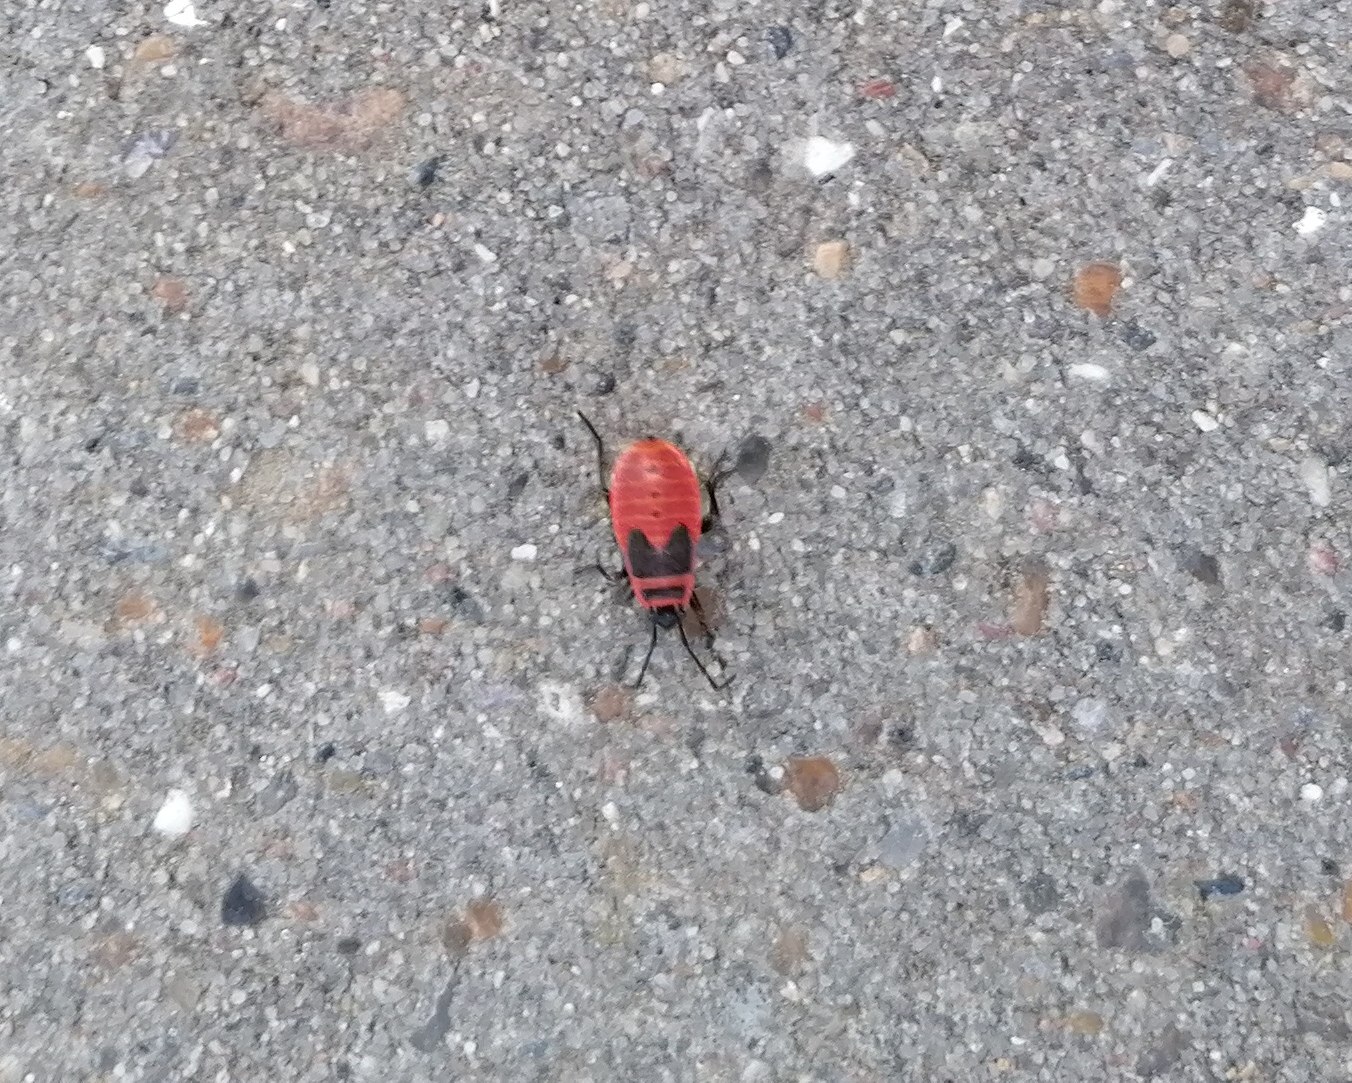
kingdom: Animalia
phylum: Arthropoda
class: Insecta
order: Hemiptera
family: Pyrrhocoridae
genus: Pyrrhocoris
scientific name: Pyrrhocoris apterus
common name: Ildtæge
